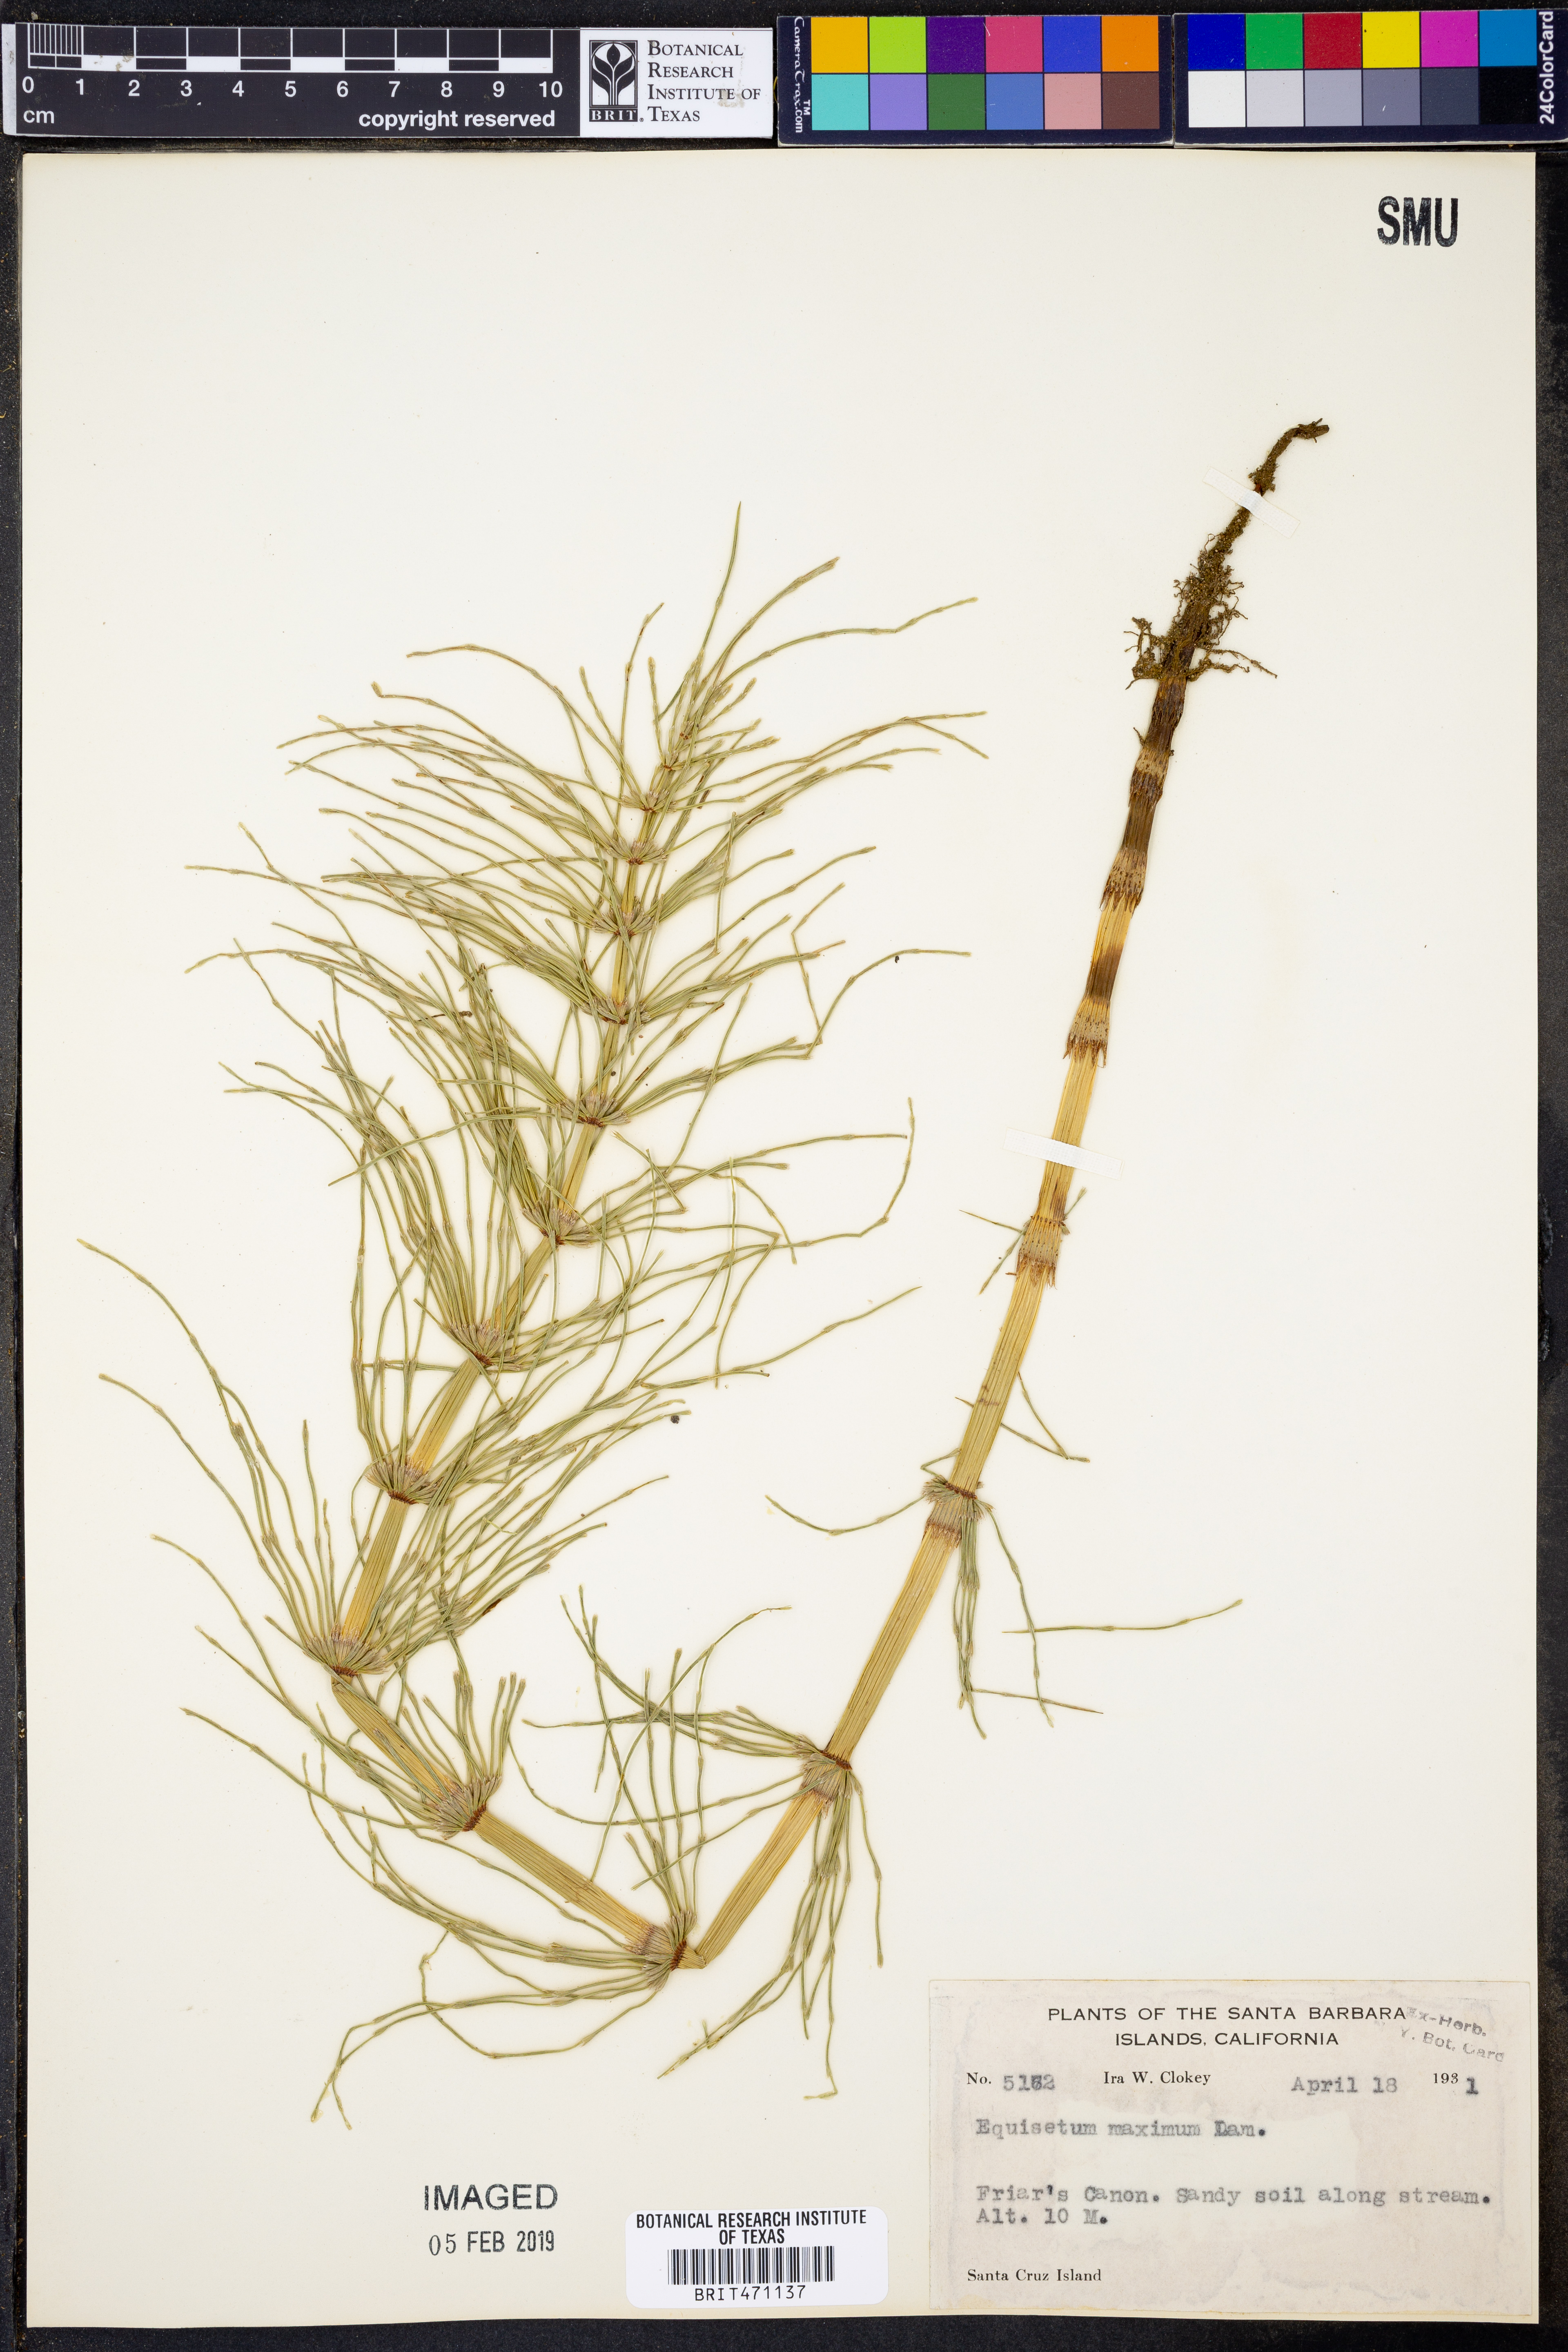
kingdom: Plantae
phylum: Tracheophyta
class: Polypodiopsida
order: Equisetales
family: Equisetaceae
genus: Equisetum
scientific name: Equisetum
